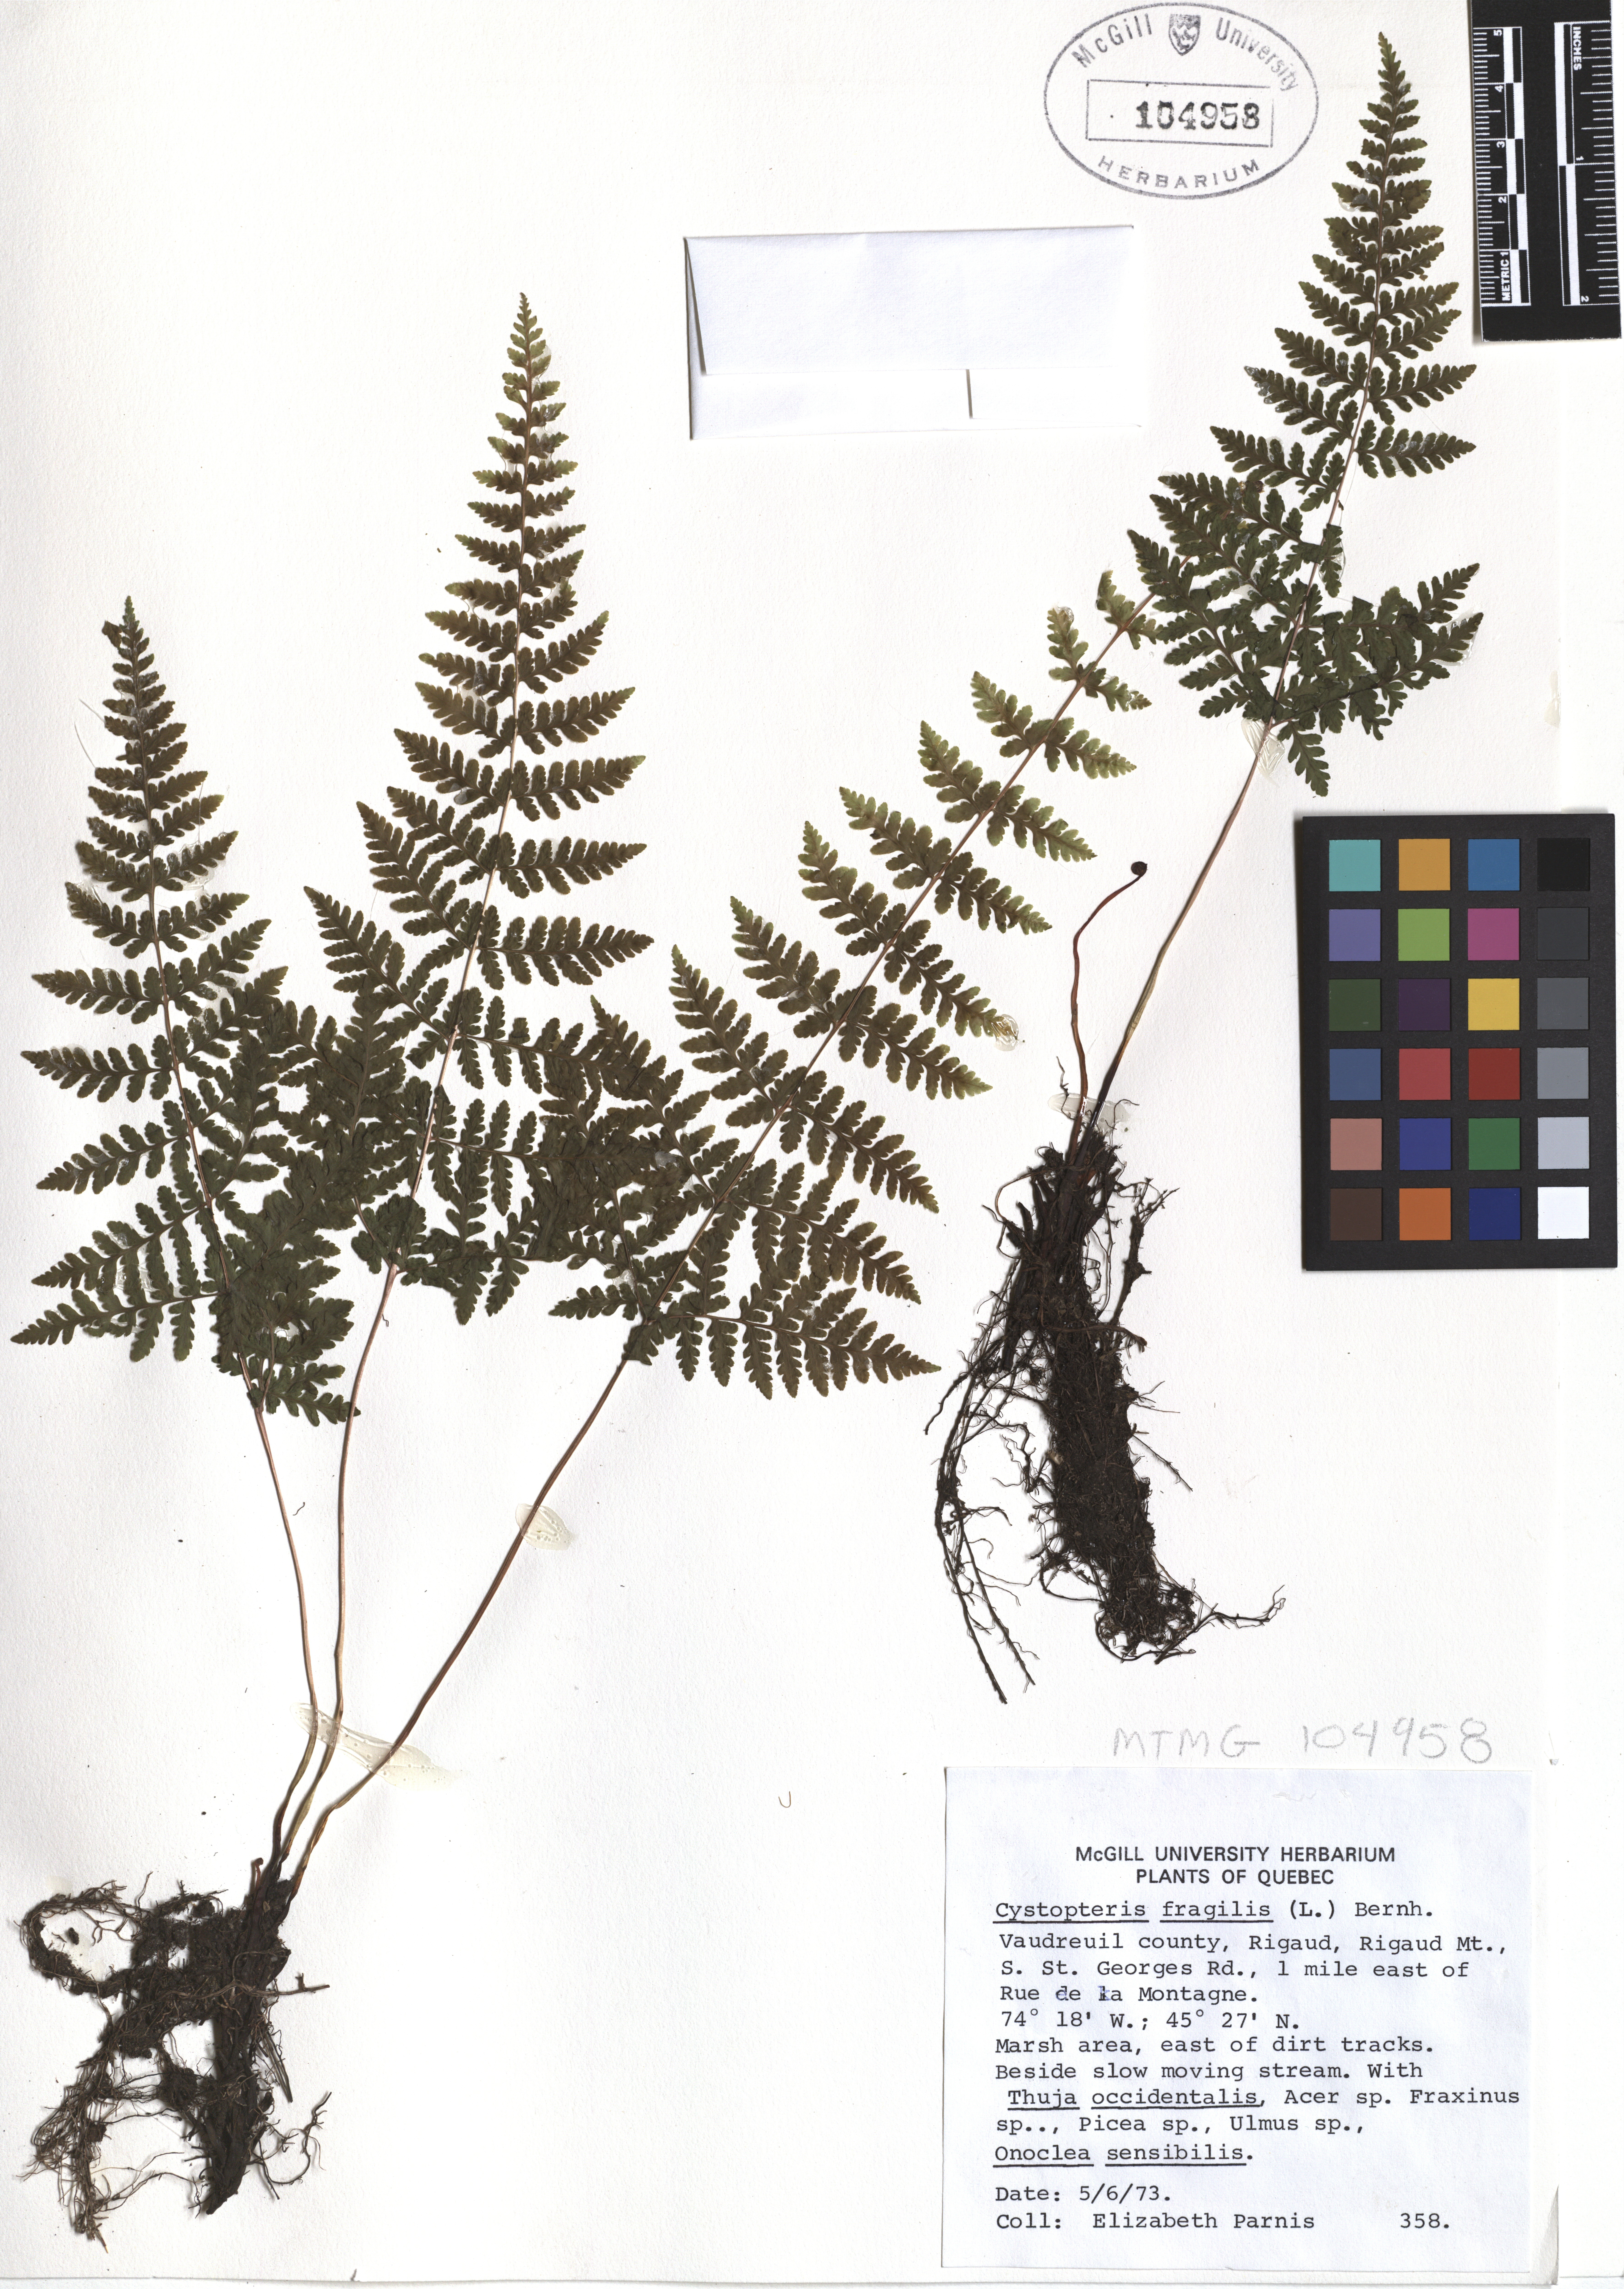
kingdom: Plantae
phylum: Tracheophyta
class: Polypodiopsida
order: Polypodiales
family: Cystopteridaceae
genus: Cystopteris
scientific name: Cystopteris fragilis
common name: Brittle bladder fern
